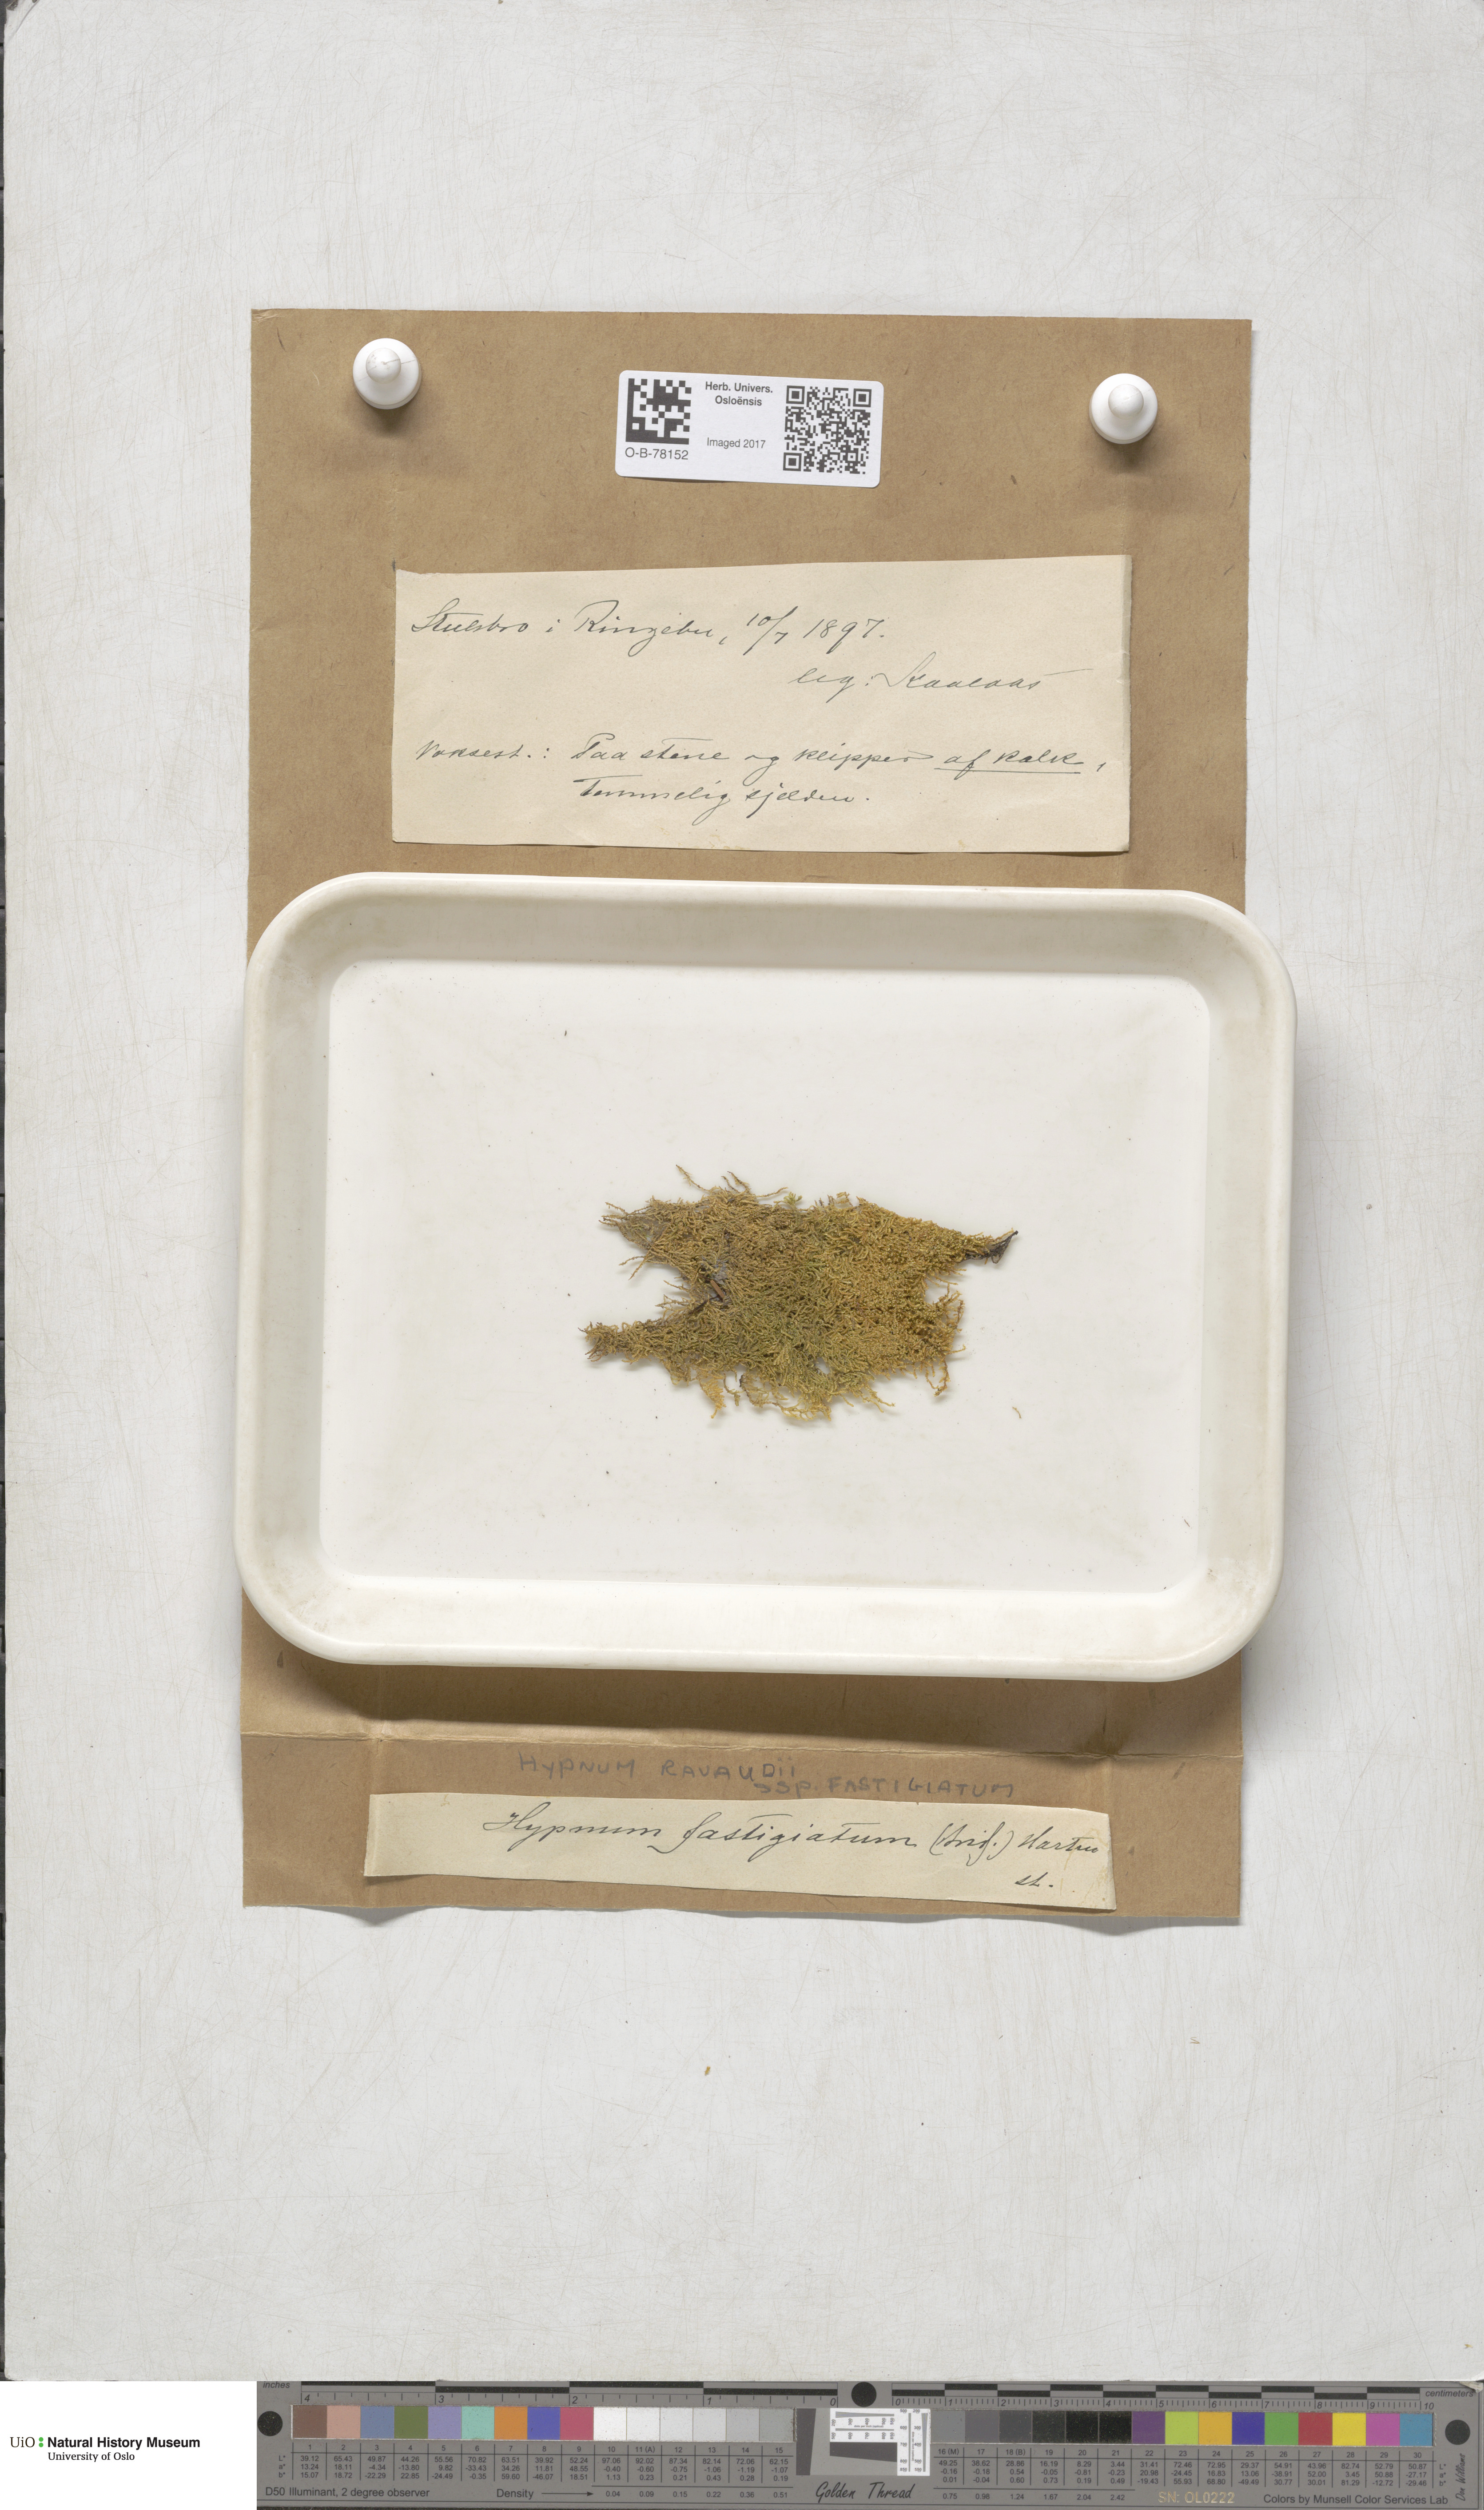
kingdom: Plantae
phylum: Bryophyta
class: Bryopsida
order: Hypnales
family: Amblystegiaceae
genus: Drepanium
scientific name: Drepanium fastigiatum
